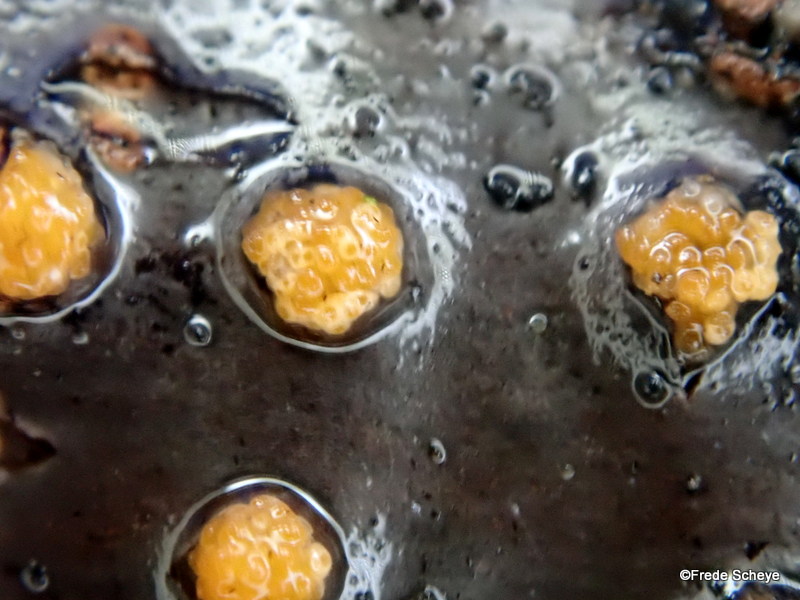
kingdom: Fungi
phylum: Ascomycota
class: Sordariomycetes
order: Hypocreales
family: Flammocladiellaceae
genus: Flammocladiella
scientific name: Flammocladiella decora
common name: kulvulkan-cinnobersvamp
